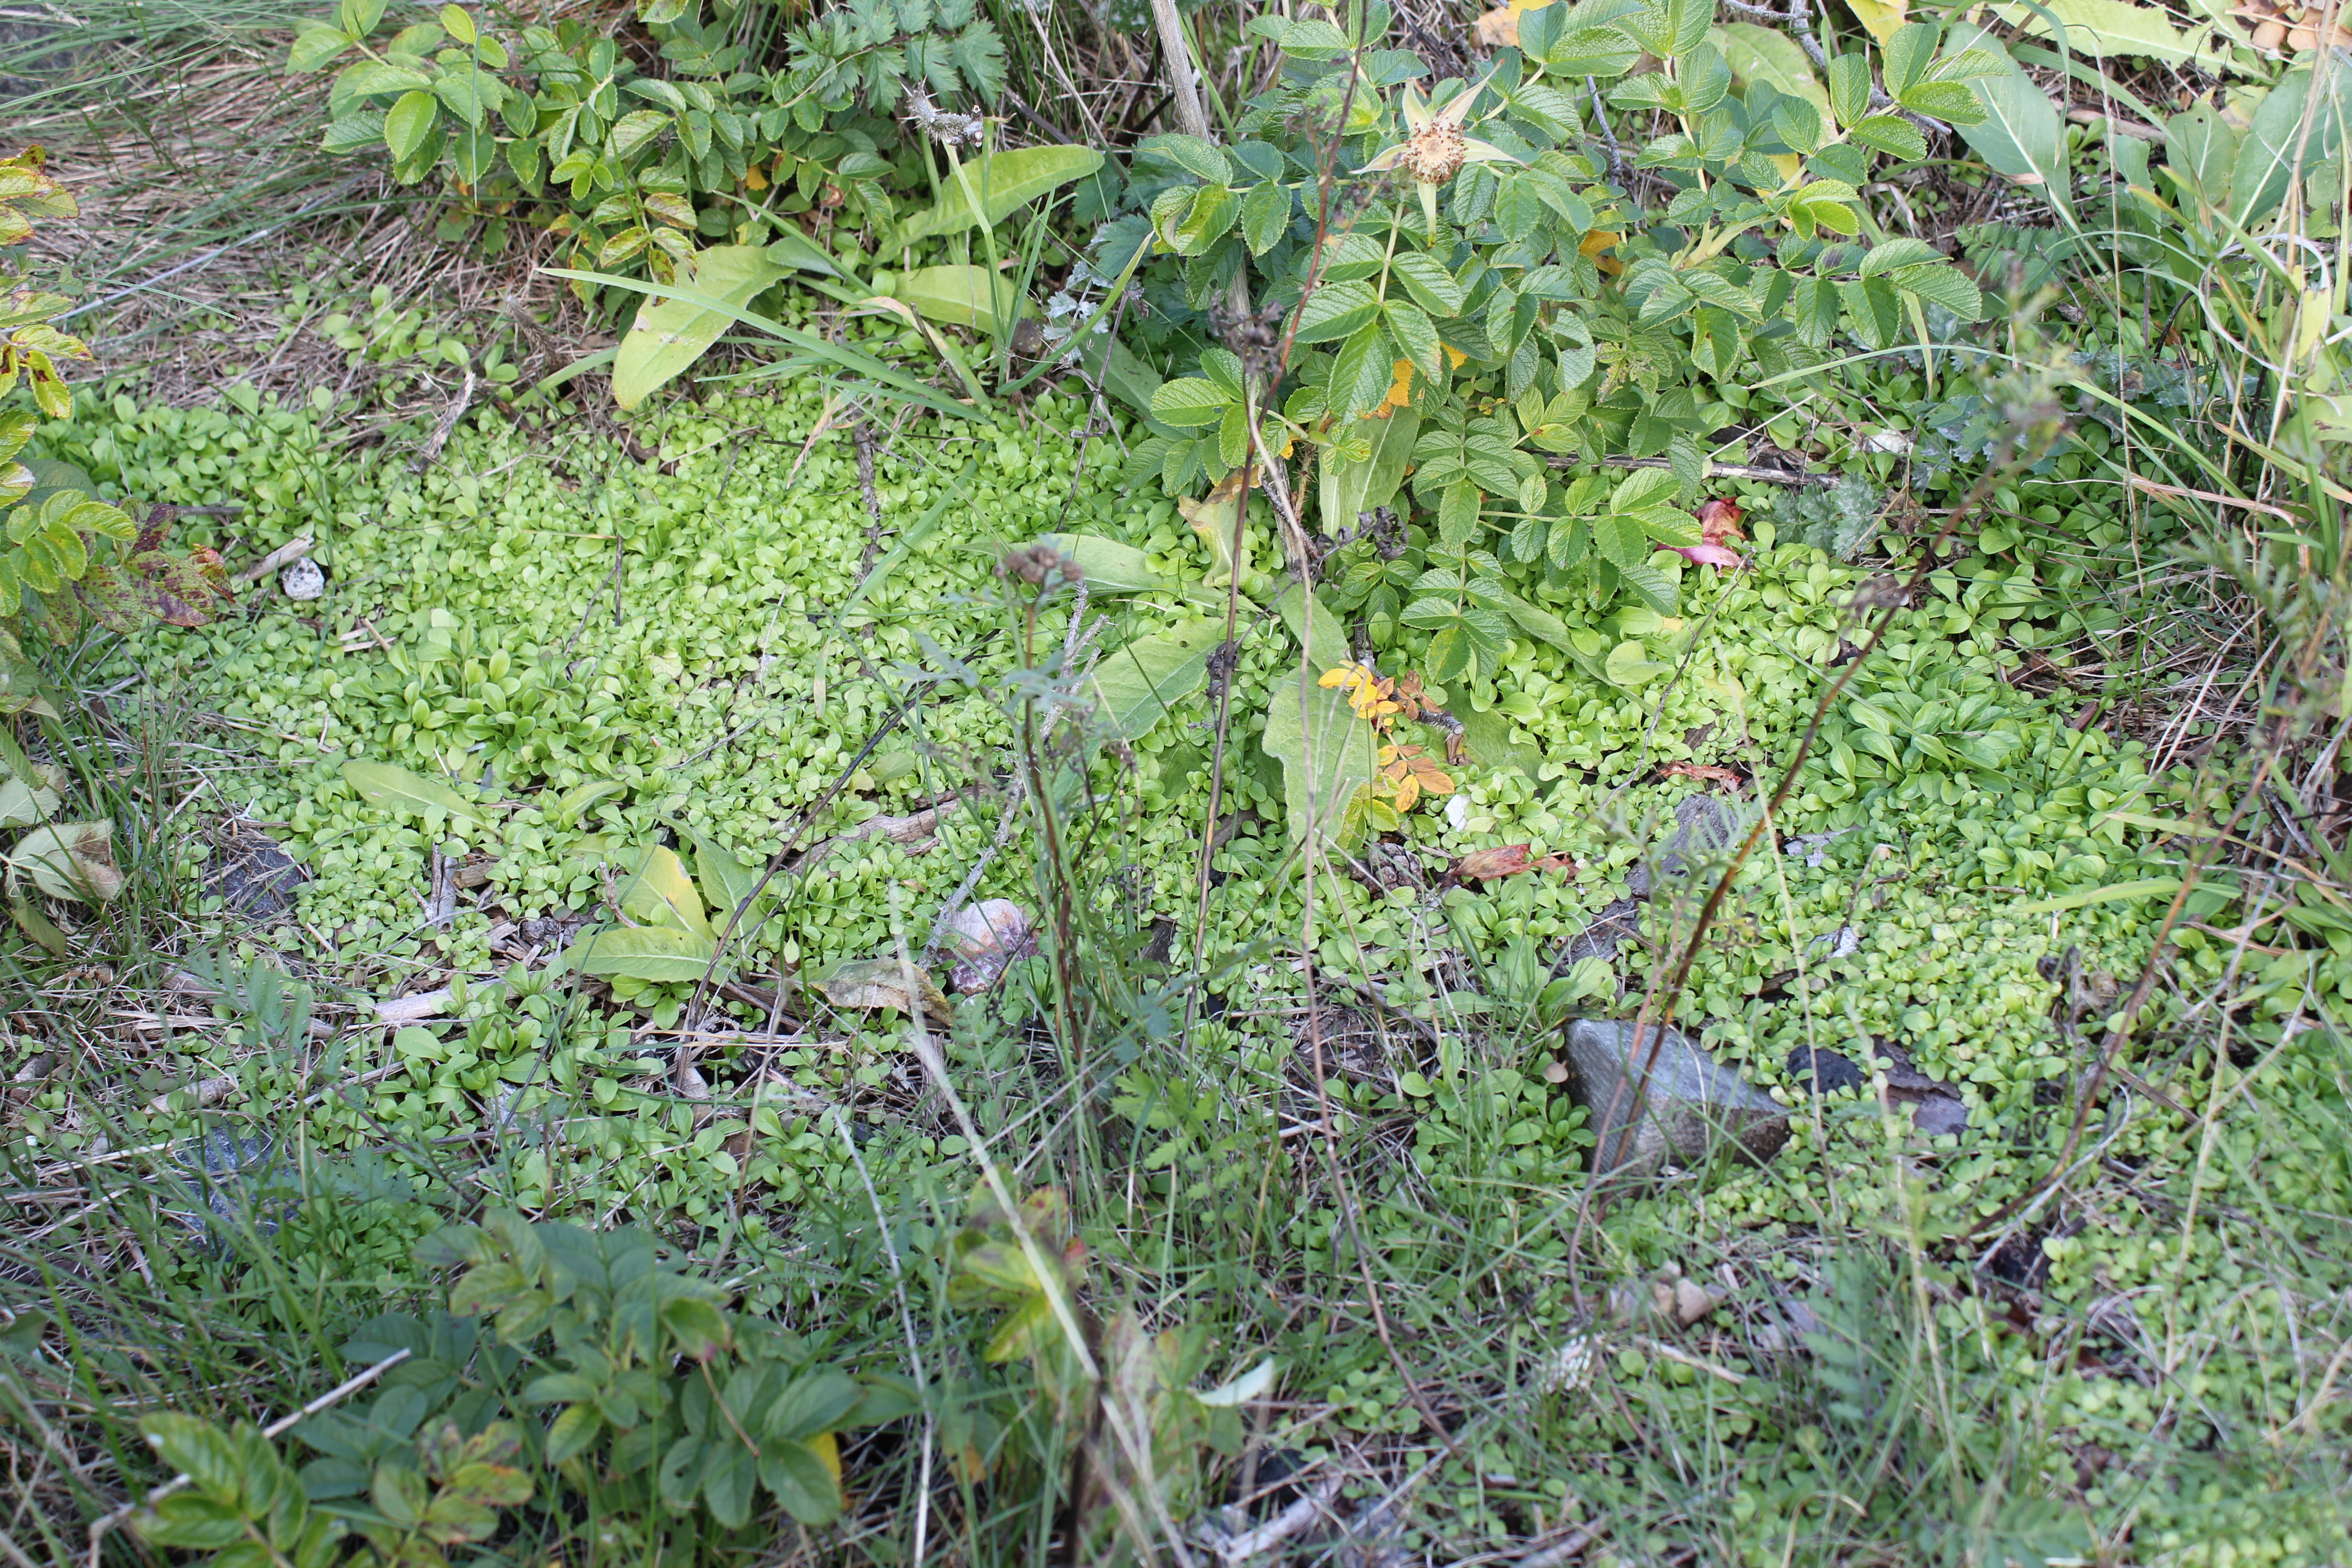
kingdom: Plantae
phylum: Tracheophyta
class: Magnoliopsida
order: Dipsacales
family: Caprifoliaceae
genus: Valerianella
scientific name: Valerianella locusta
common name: Common cornsalad
